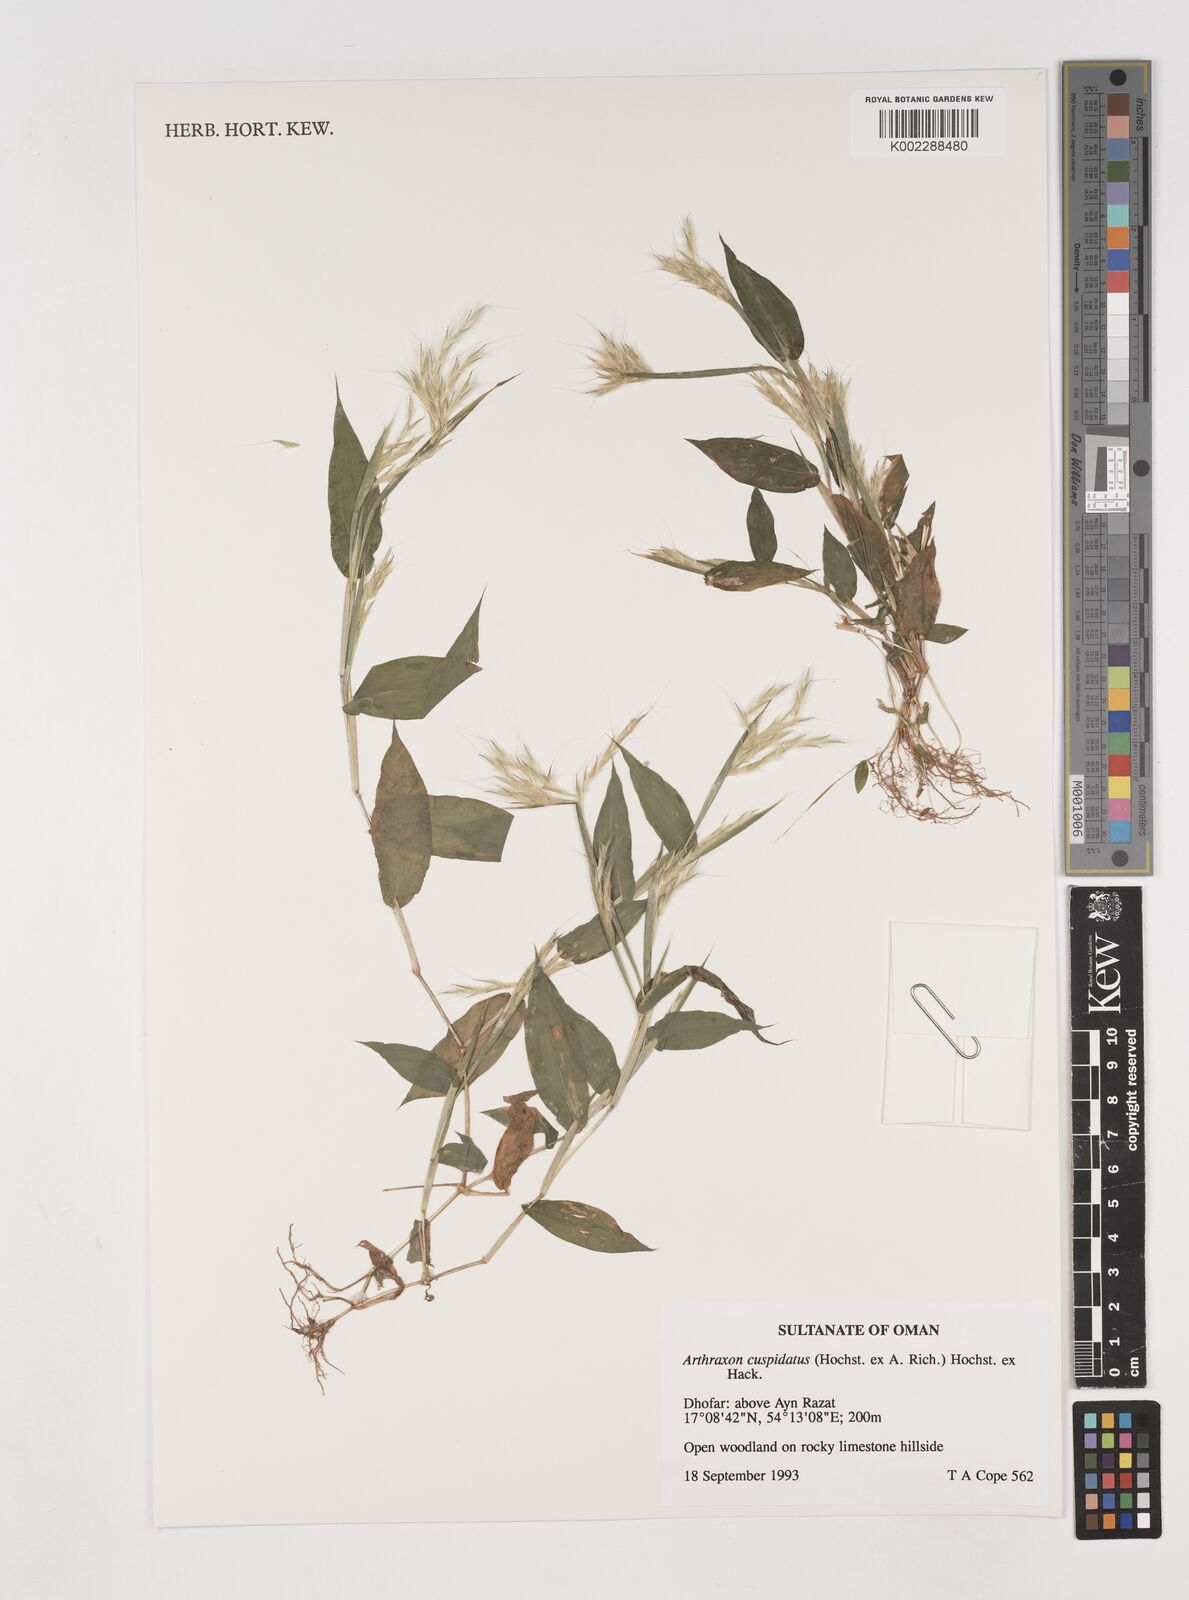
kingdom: Plantae
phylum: Tracheophyta
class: Liliopsida
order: Poales
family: Poaceae
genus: Arthraxon
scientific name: Arthraxon cuspidatus
